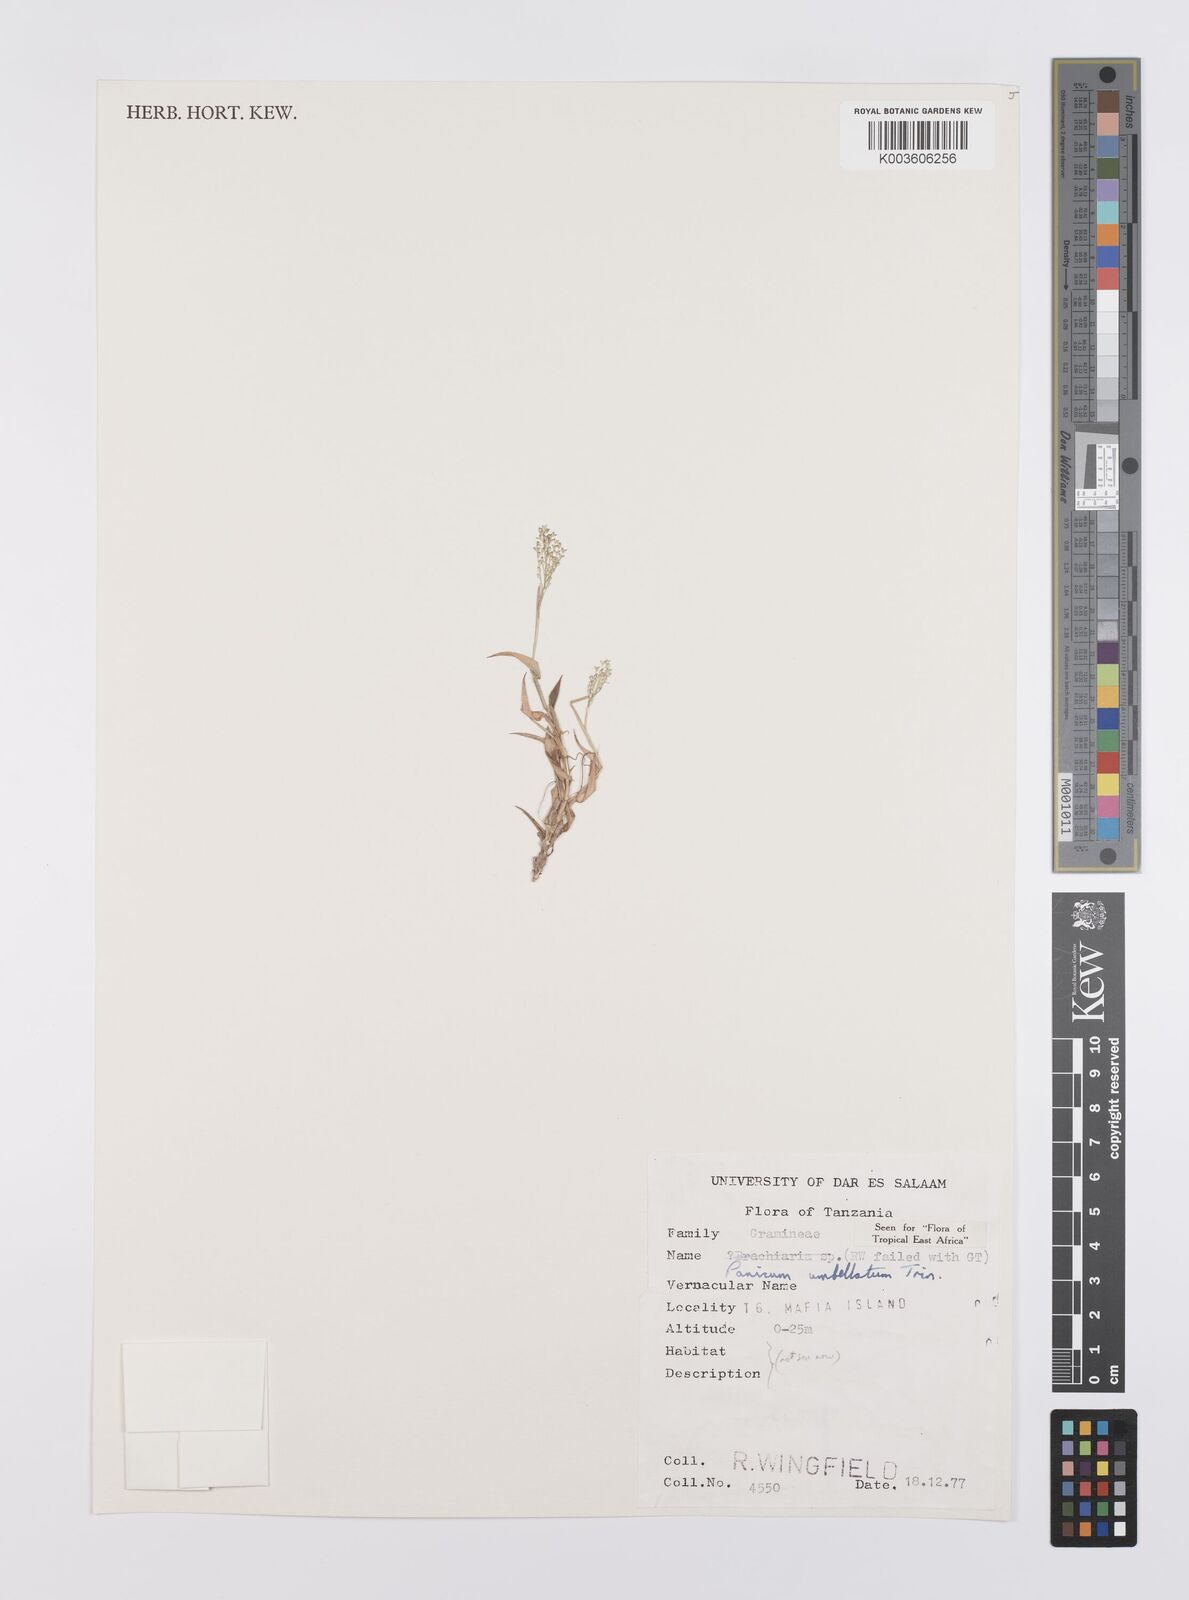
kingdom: Plantae
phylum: Tracheophyta
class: Liliopsida
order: Poales
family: Poaceae
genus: Urochloa
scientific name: Urochloa Brachiaria umbellata
